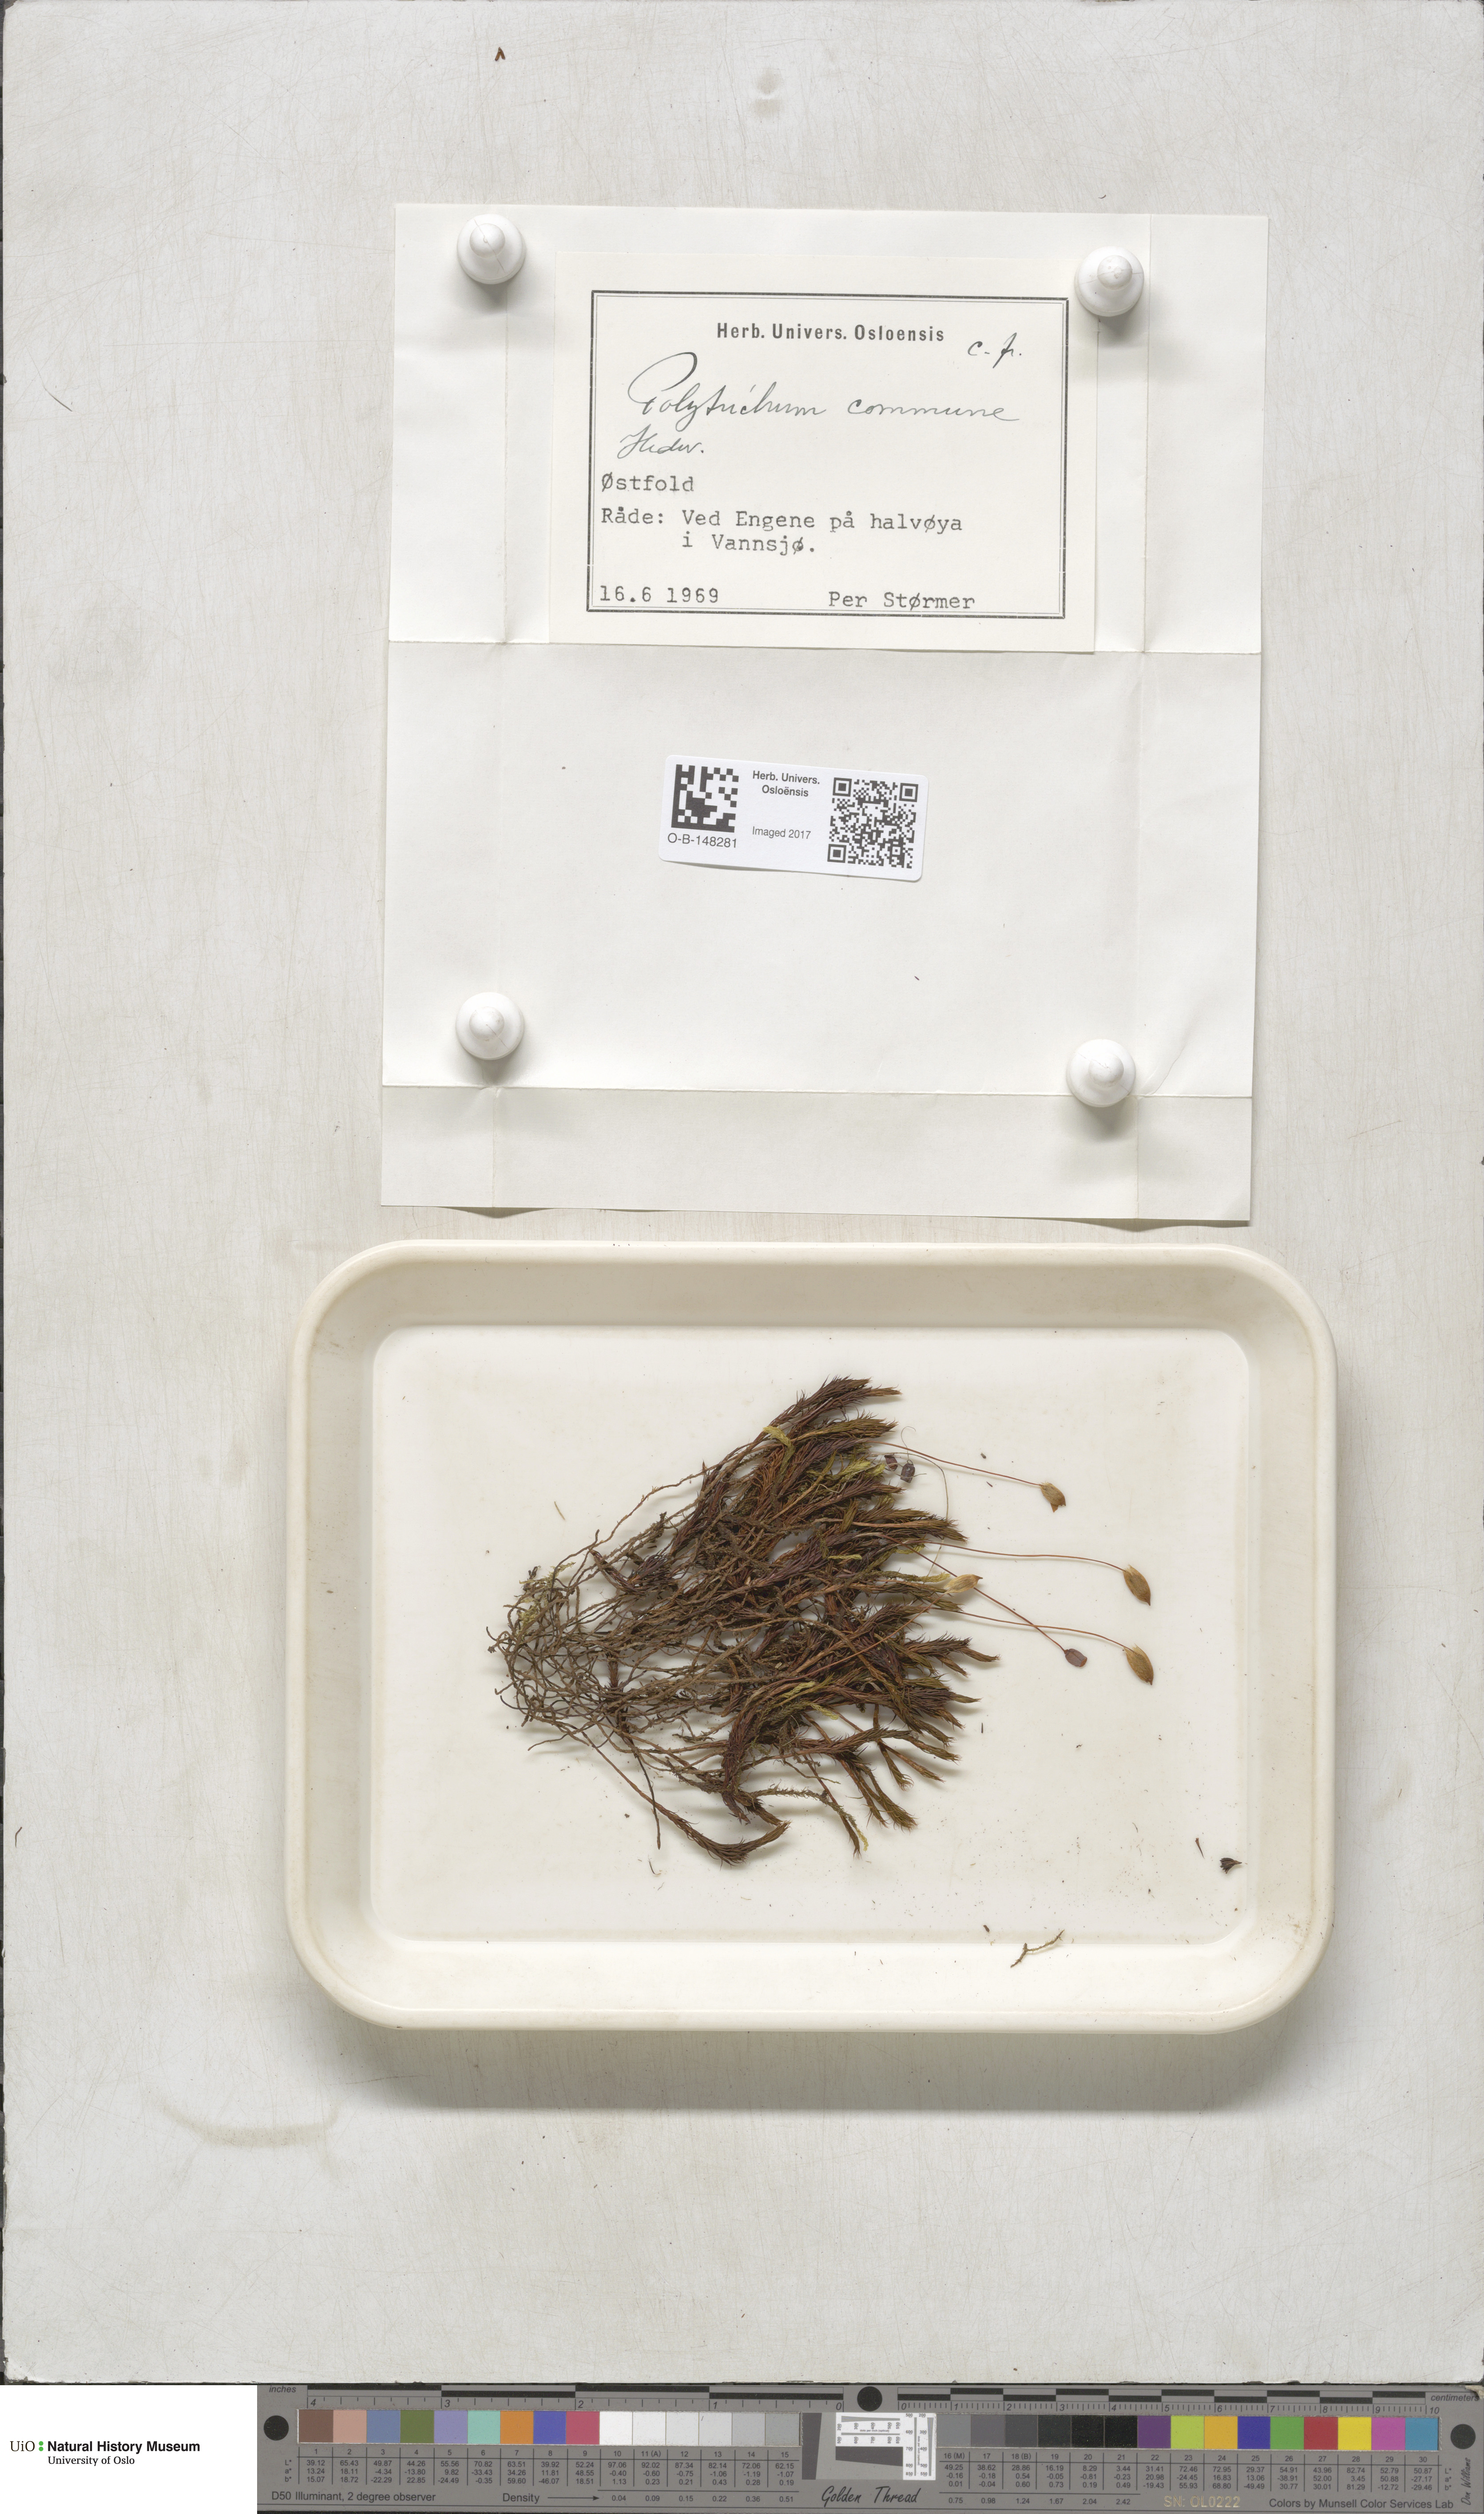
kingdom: Plantae
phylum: Bryophyta
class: Polytrichopsida
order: Polytrichales
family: Polytrichaceae
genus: Polytrichum
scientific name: Polytrichum commune
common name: Common haircap
